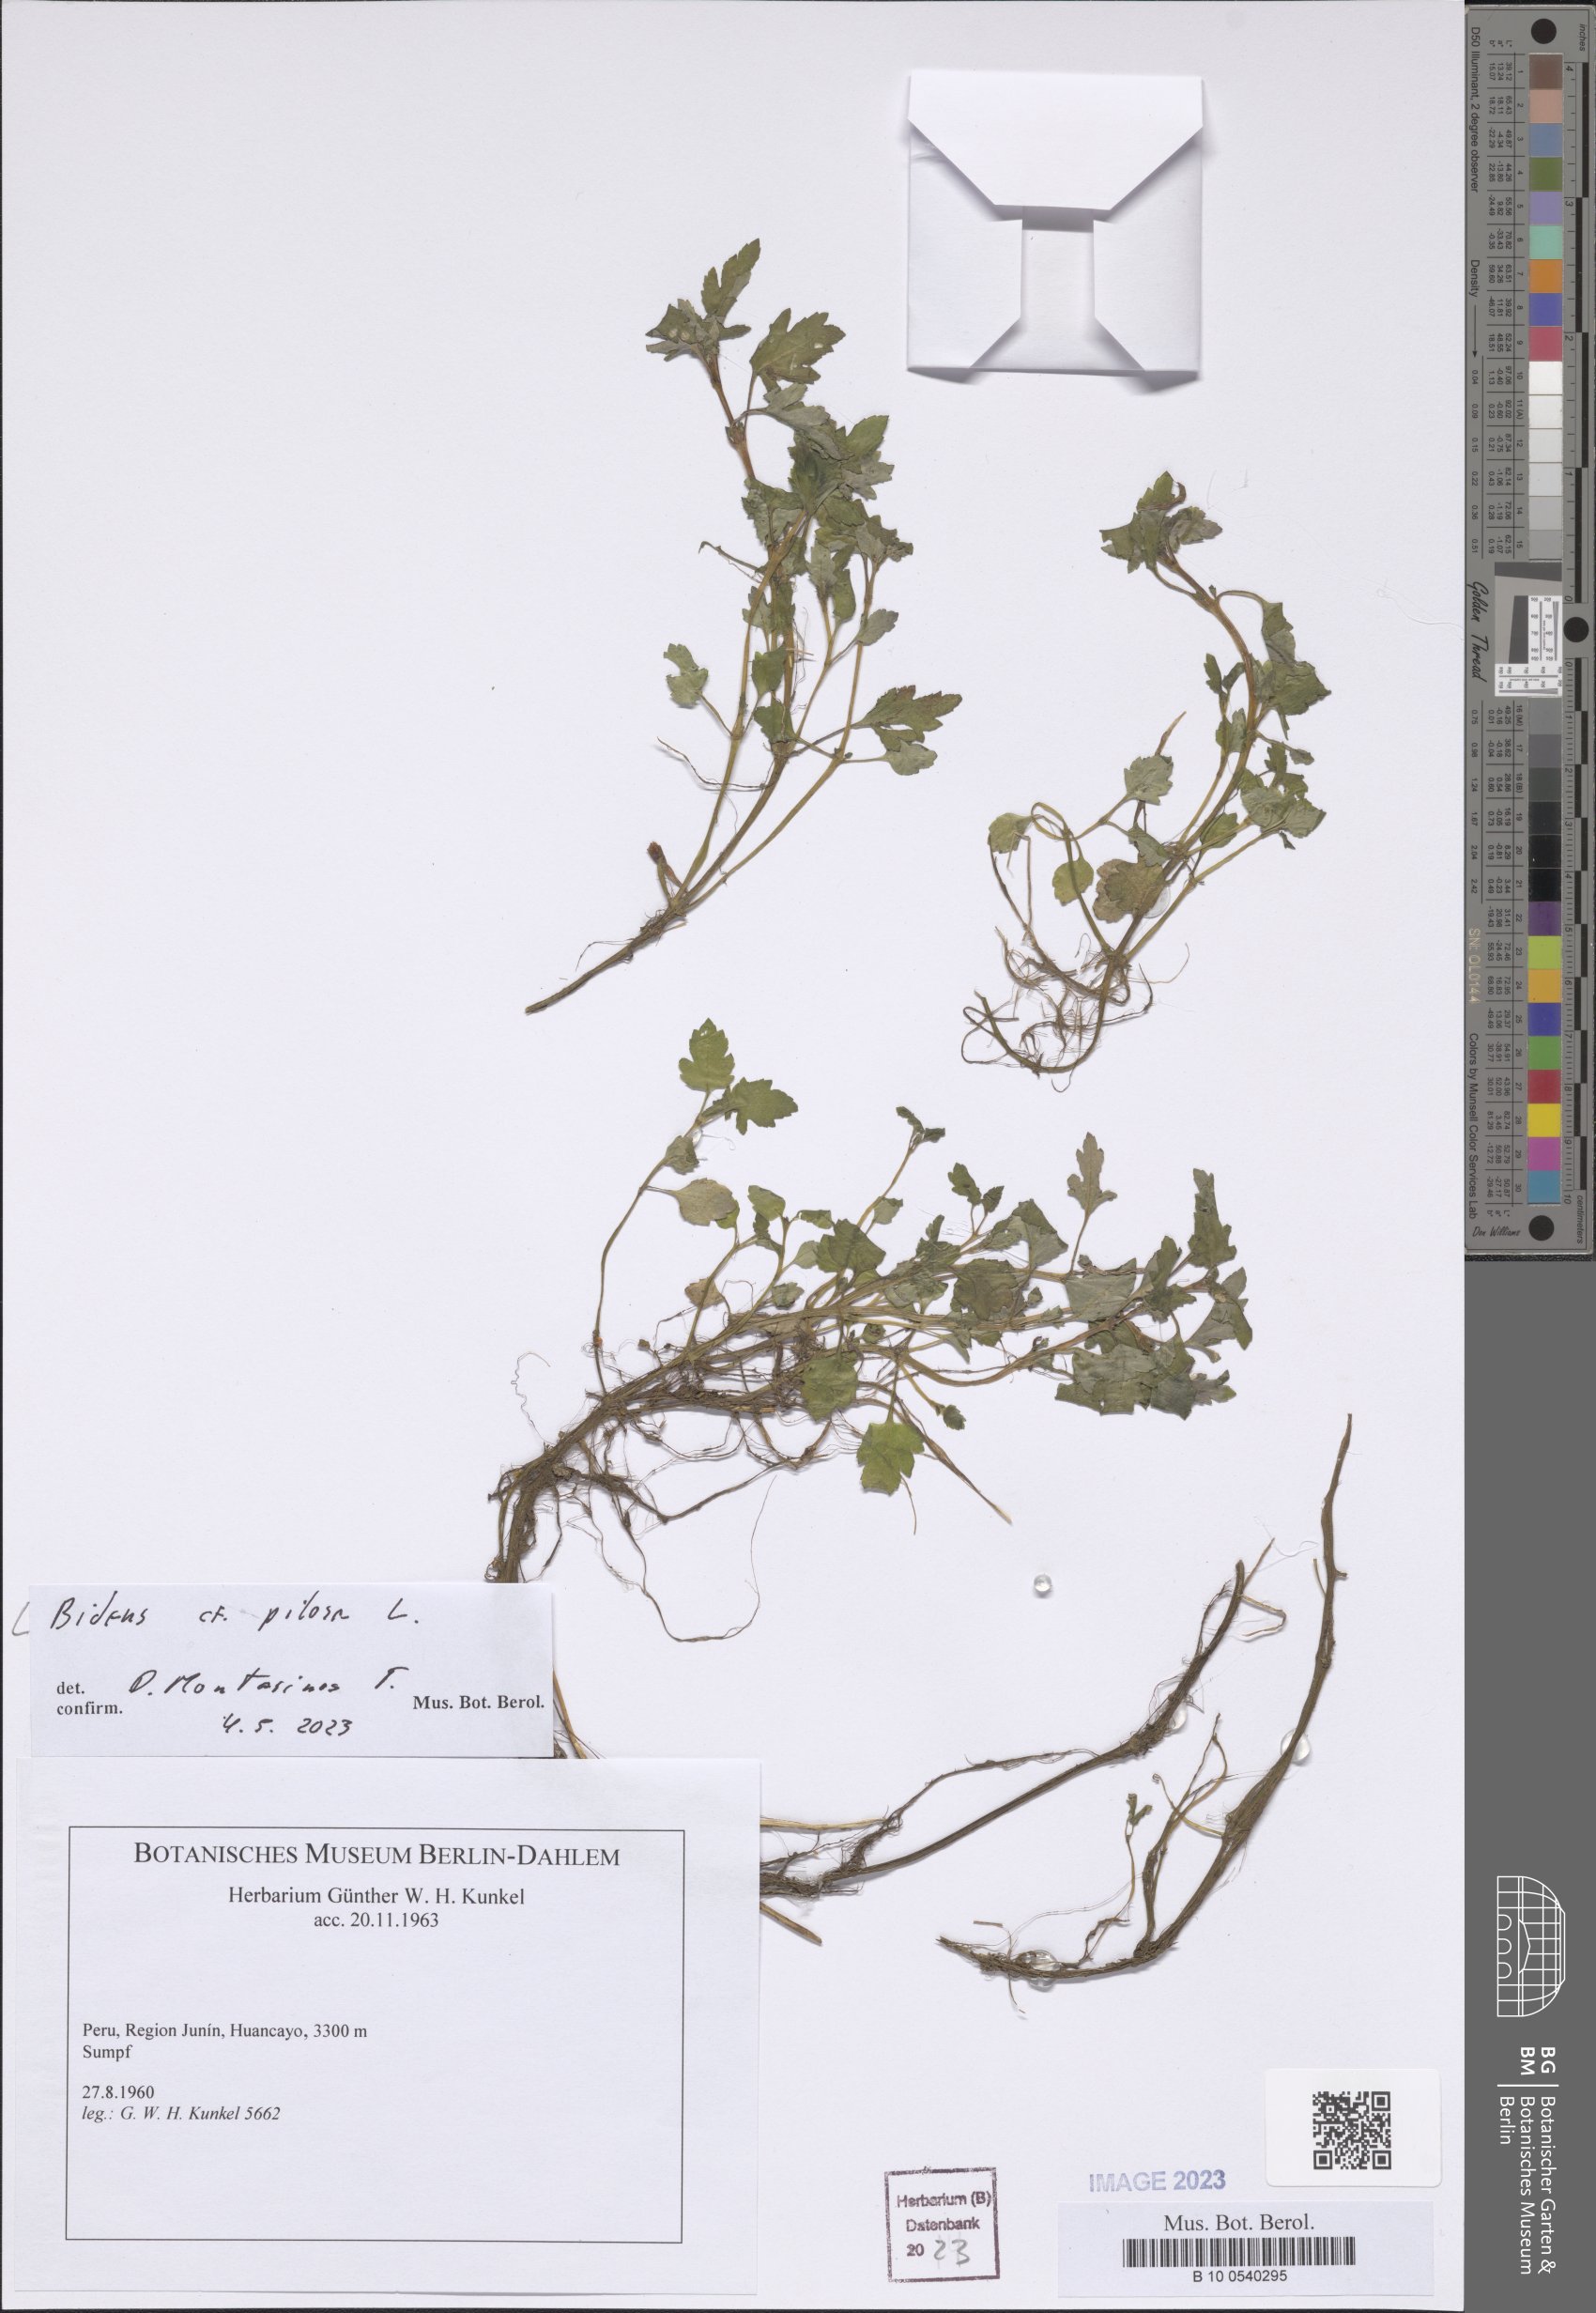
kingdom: Plantae
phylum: Tracheophyta
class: Magnoliopsida
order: Asterales
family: Asteraceae
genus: Bidens
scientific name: Bidens pilosa
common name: Black-jack
